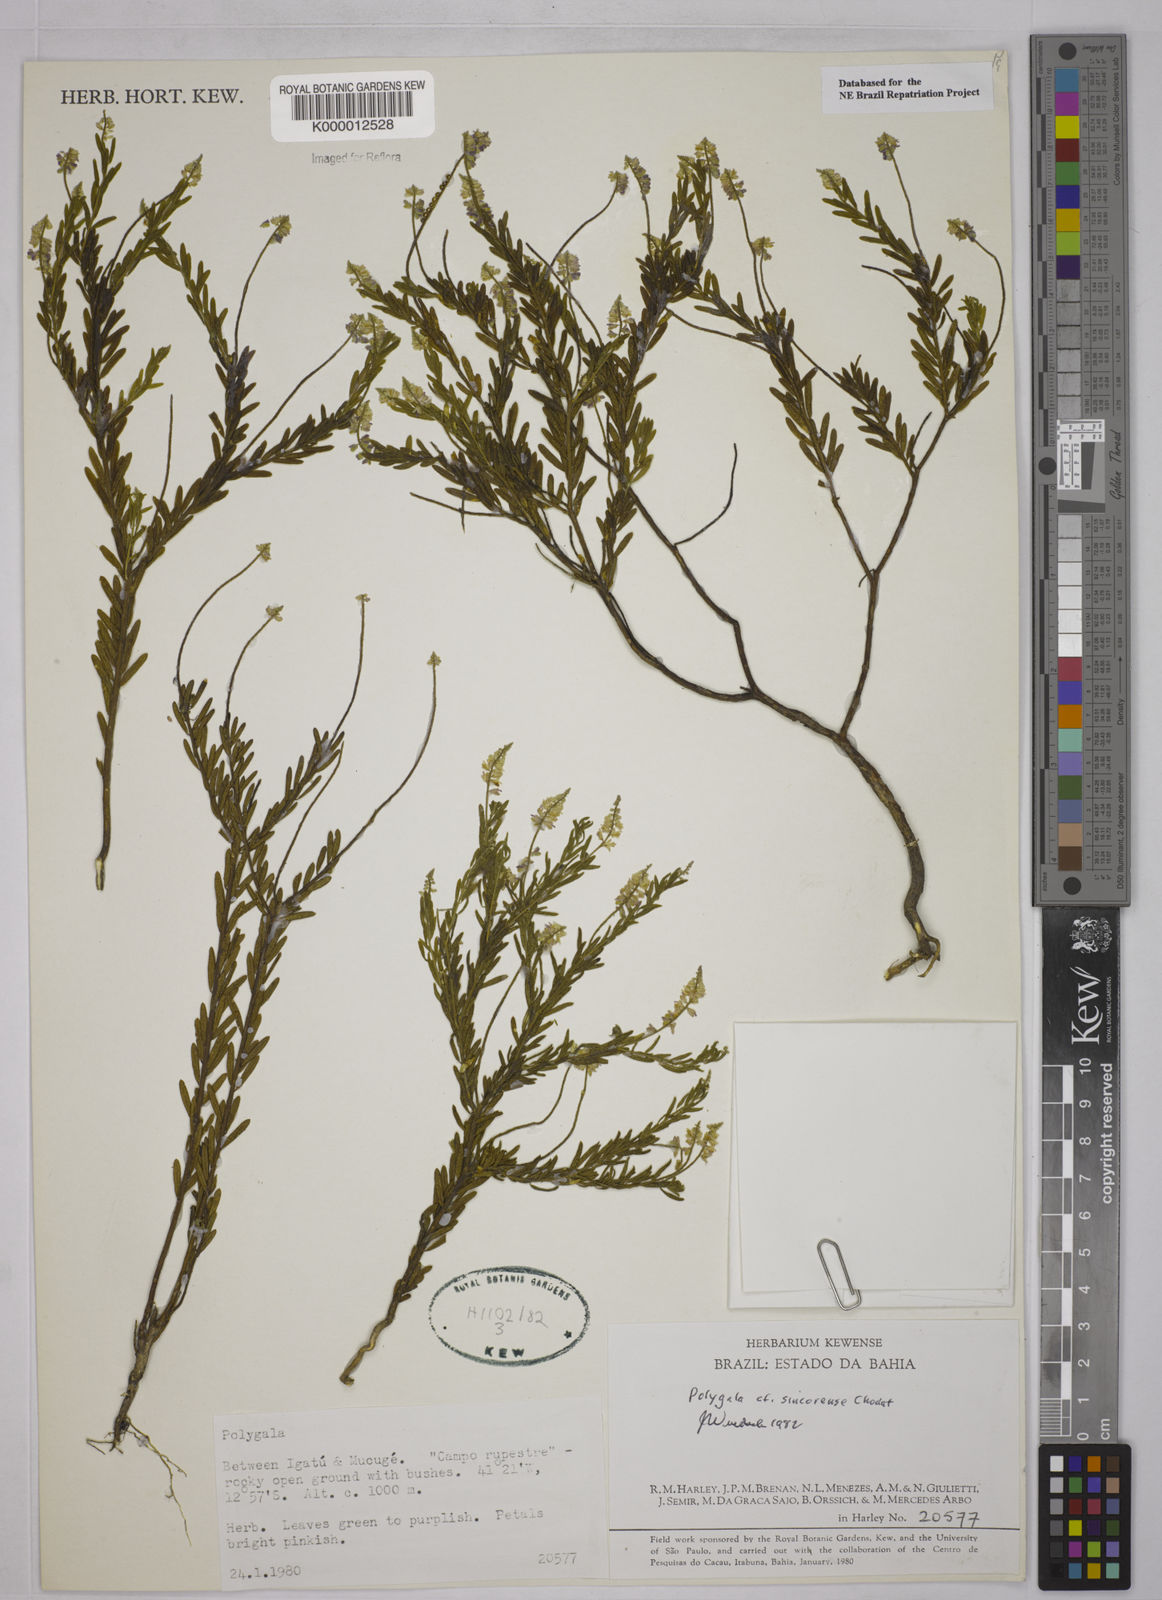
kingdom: Plantae
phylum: Tracheophyta
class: Magnoliopsida
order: Fabales
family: Polygalaceae
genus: Polygala
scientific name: Polygala tuberculata
